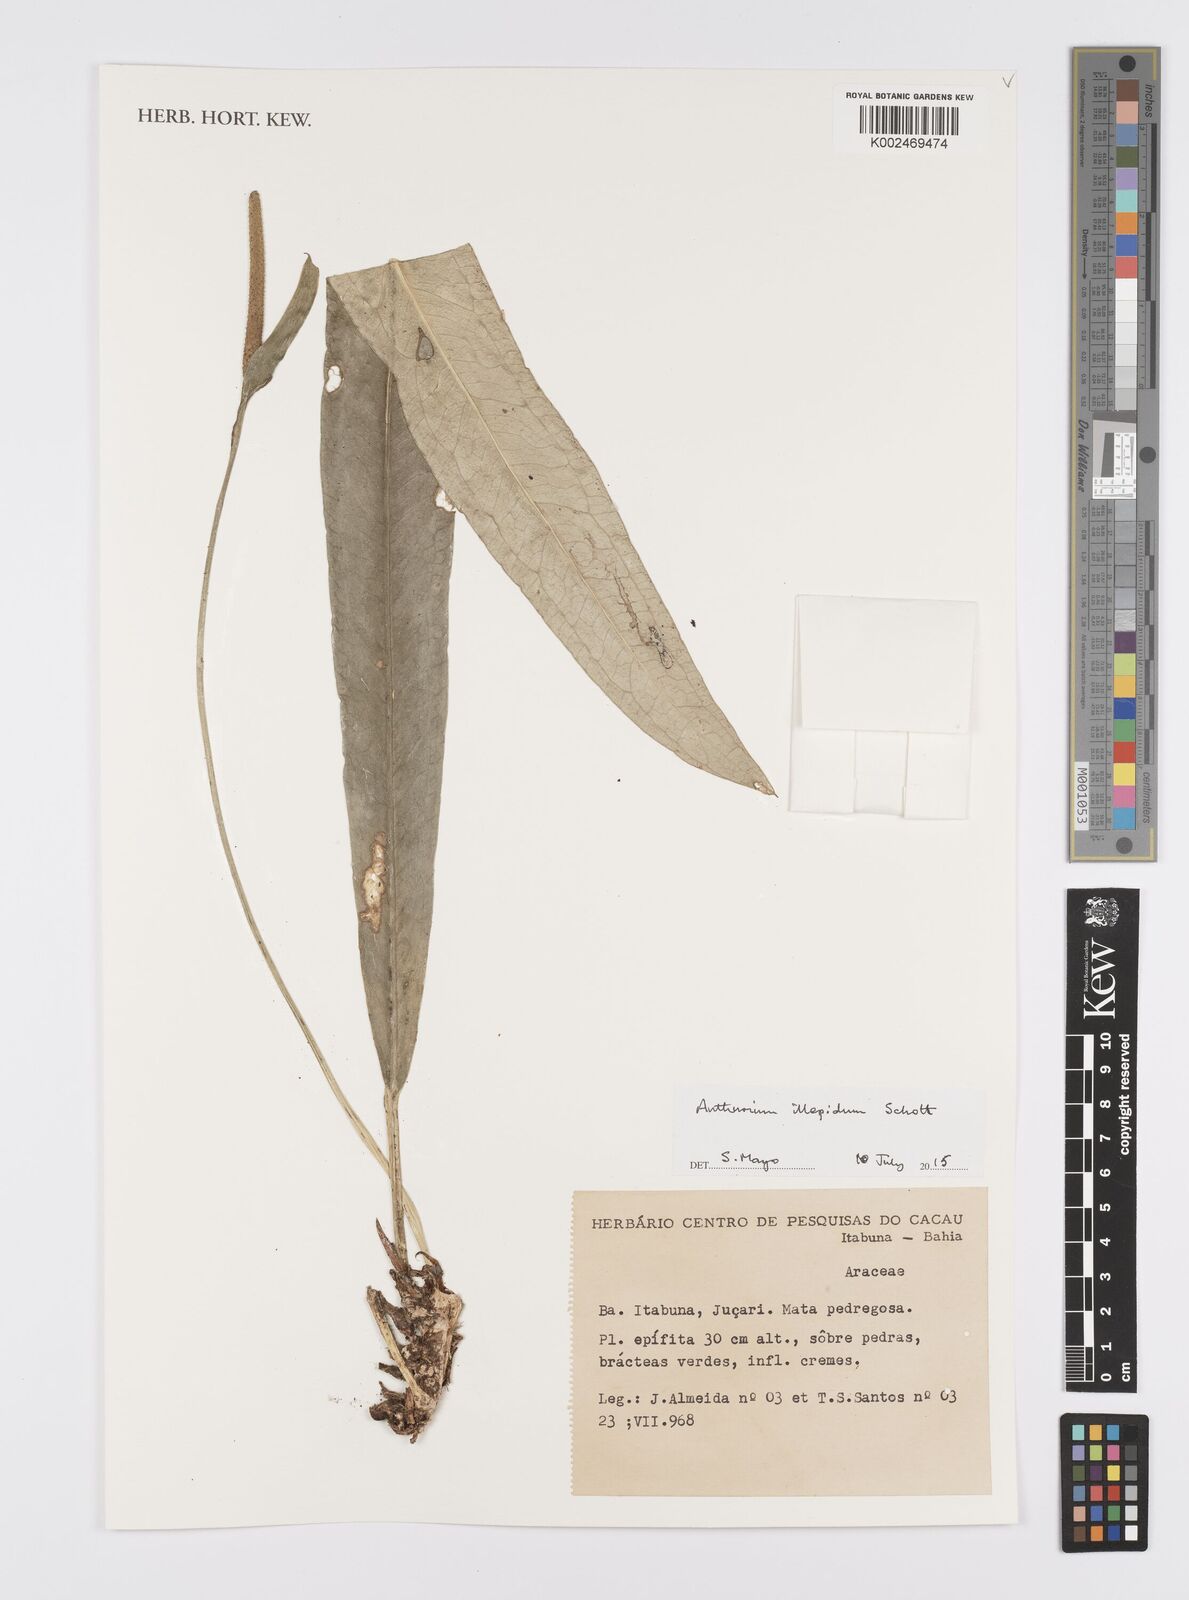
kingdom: Plantae
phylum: Tracheophyta
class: Liliopsida
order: Alismatales
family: Araceae
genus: Anthurium
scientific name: Anthurium illepidum
